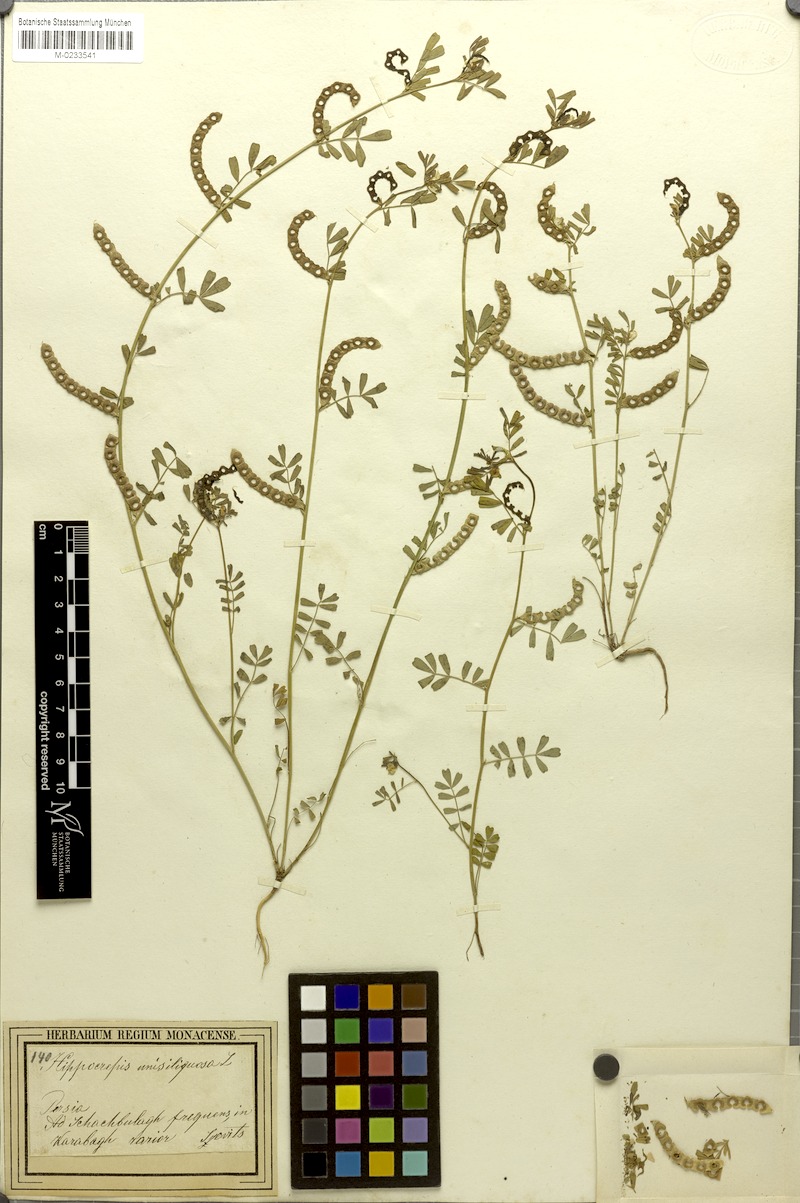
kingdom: Plantae
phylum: Tracheophyta
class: Magnoliopsida
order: Fabales
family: Fabaceae
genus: Hippocrepis
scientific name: Hippocrepis biflora
